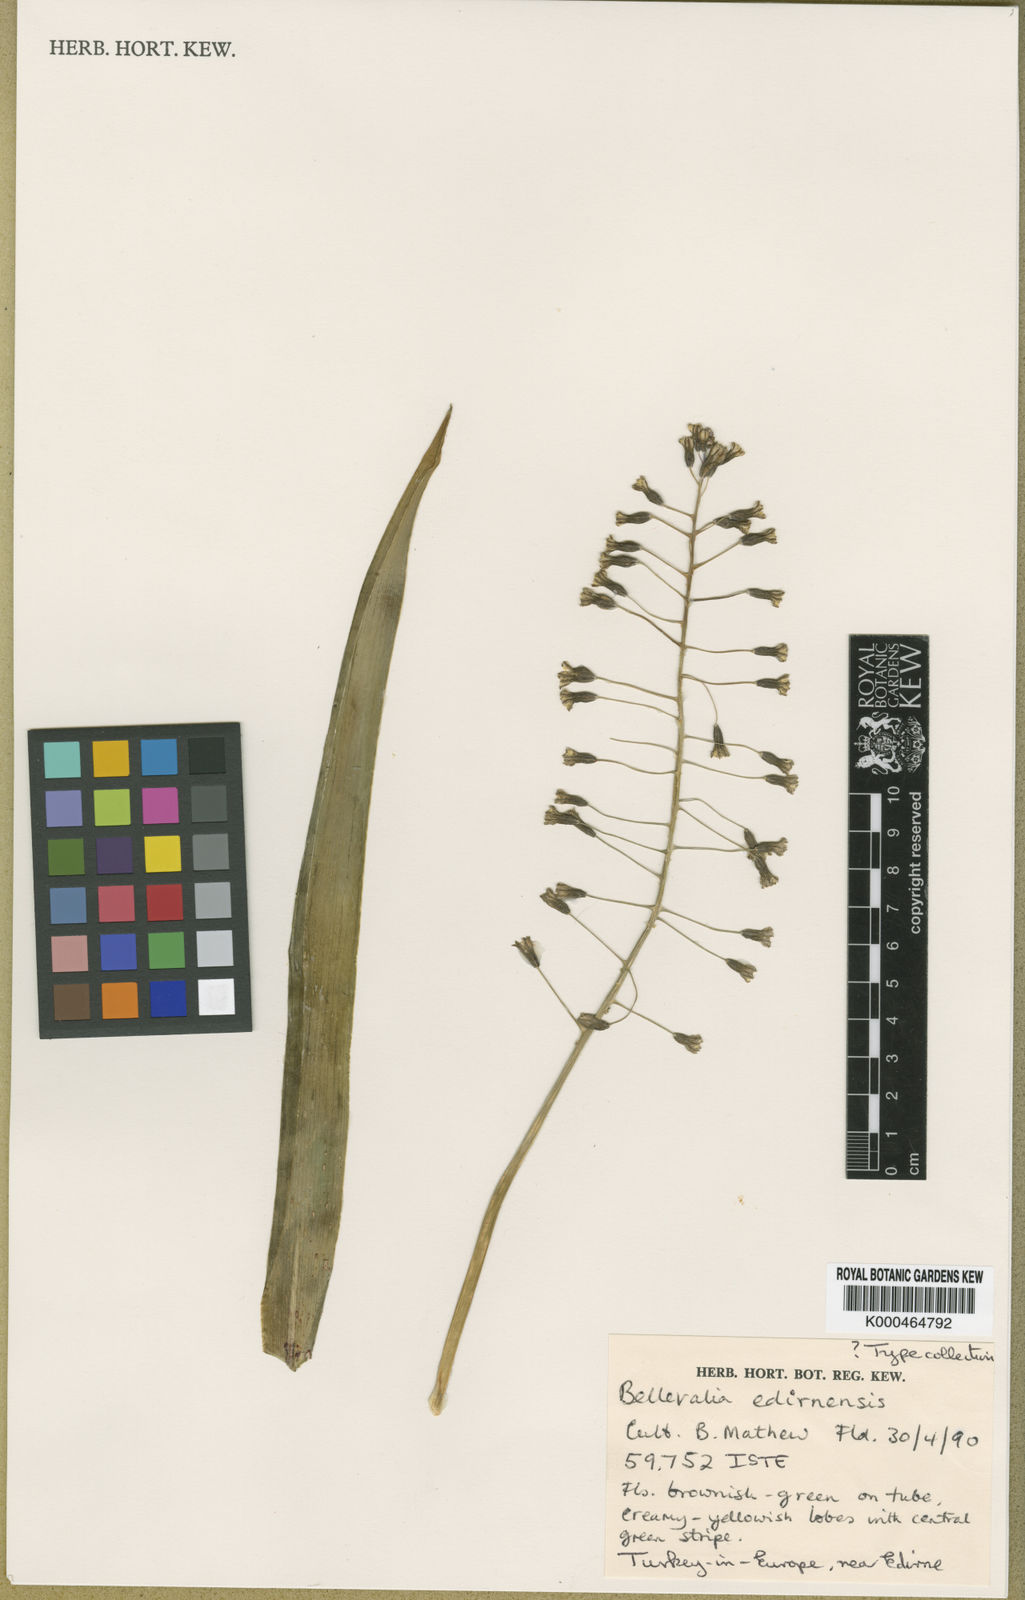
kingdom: Plantae
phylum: Tracheophyta
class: Liliopsida
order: Asparagales
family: Asparagaceae
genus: Bellevalia
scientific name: Bellevalia
